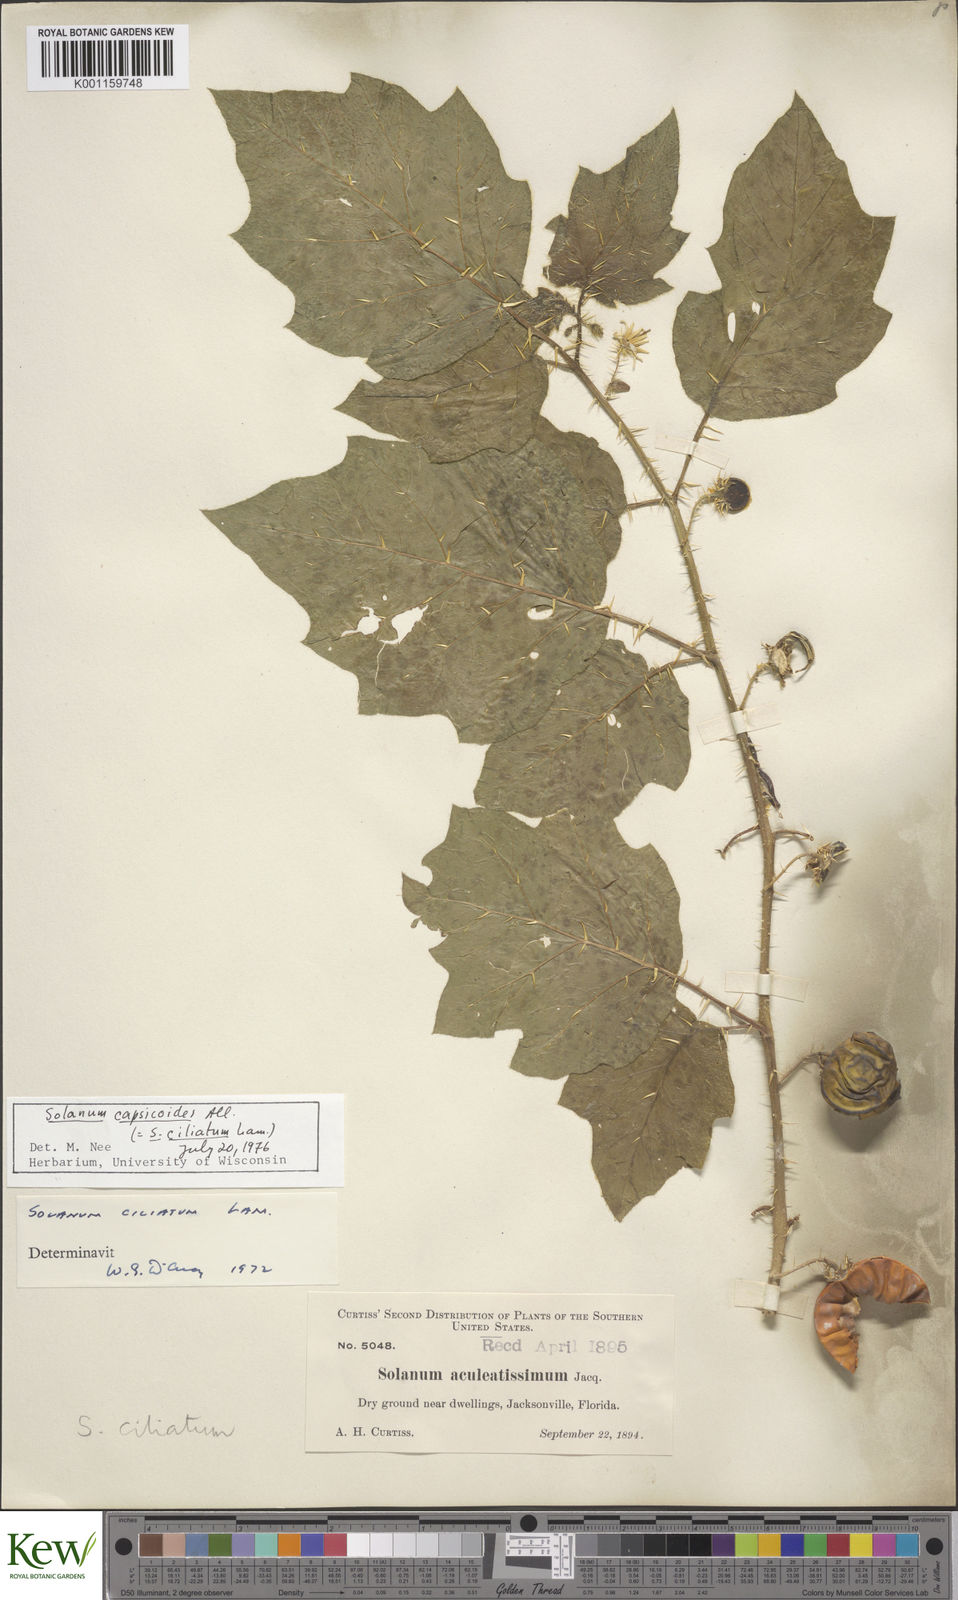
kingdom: Plantae
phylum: Tracheophyta
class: Magnoliopsida
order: Solanales
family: Solanaceae
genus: Solanum
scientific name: Solanum capsicoides
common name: Cockroach berry
